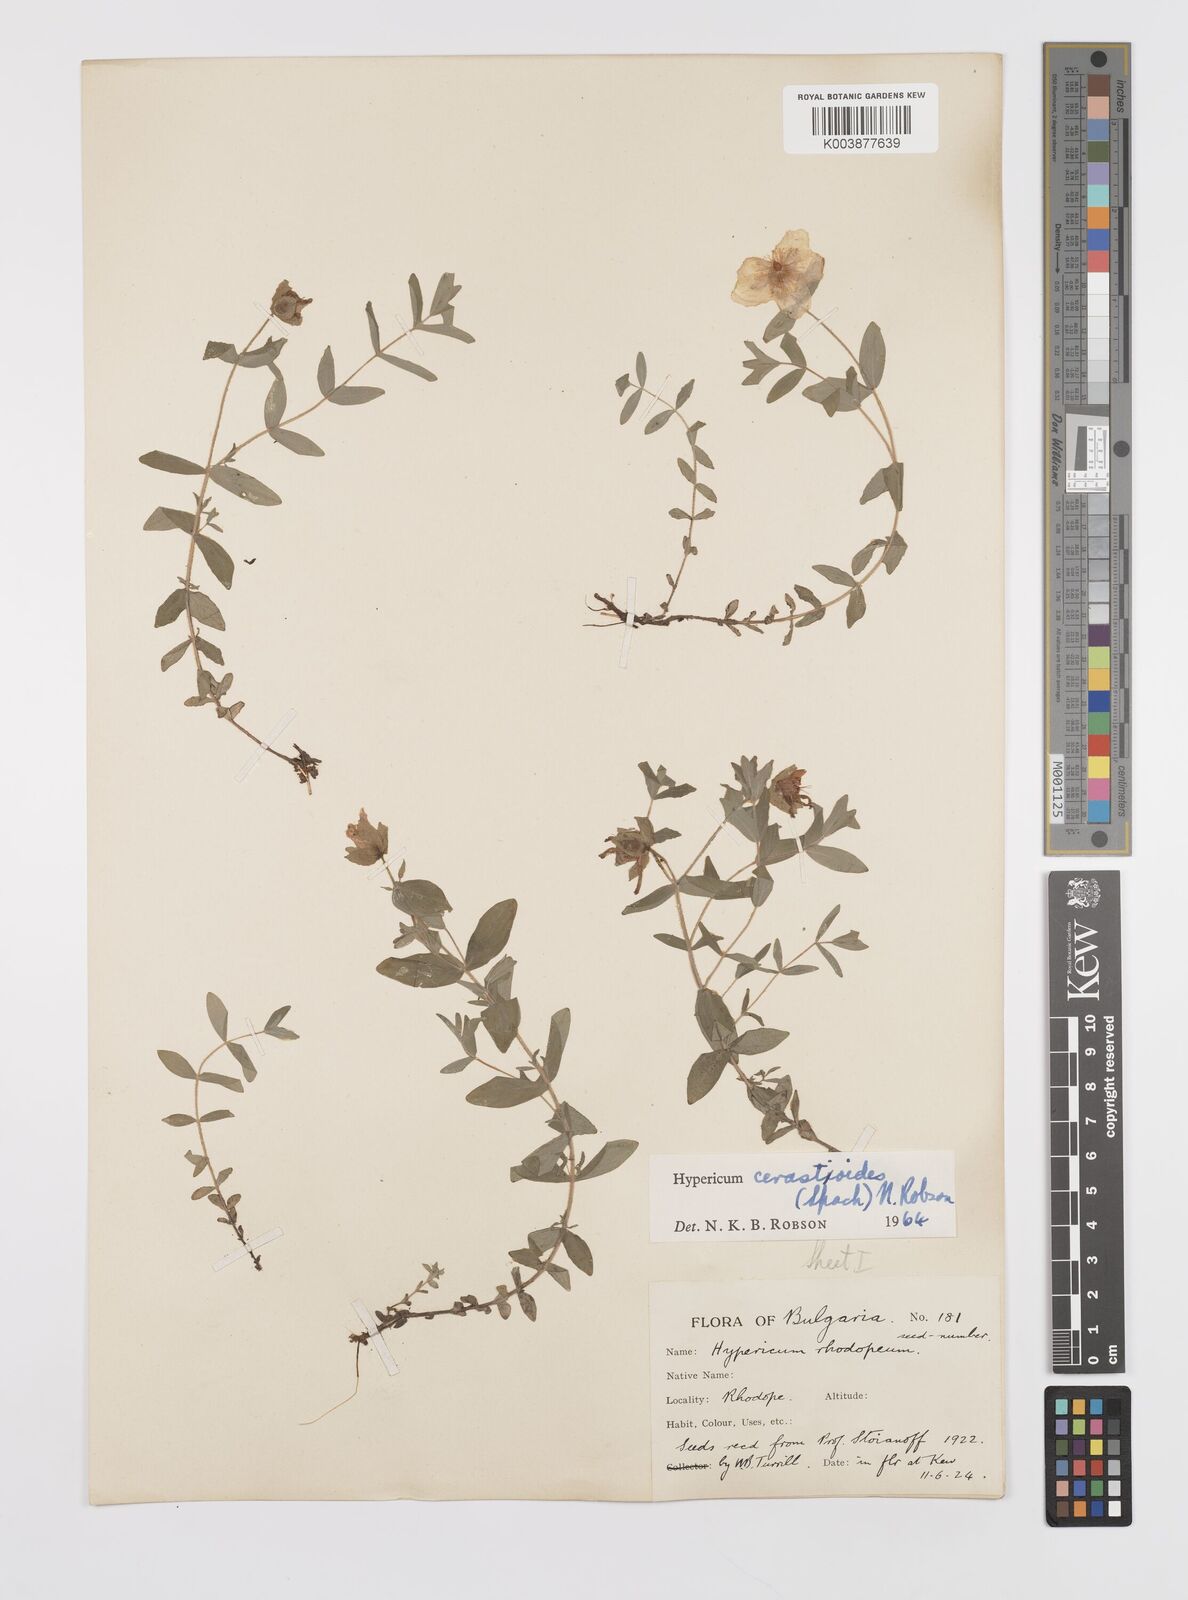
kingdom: Plantae
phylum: Tracheophyta
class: Magnoliopsida
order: Malpighiales
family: Hypericaceae
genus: Hypericum
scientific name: Hypericum cerastoides
